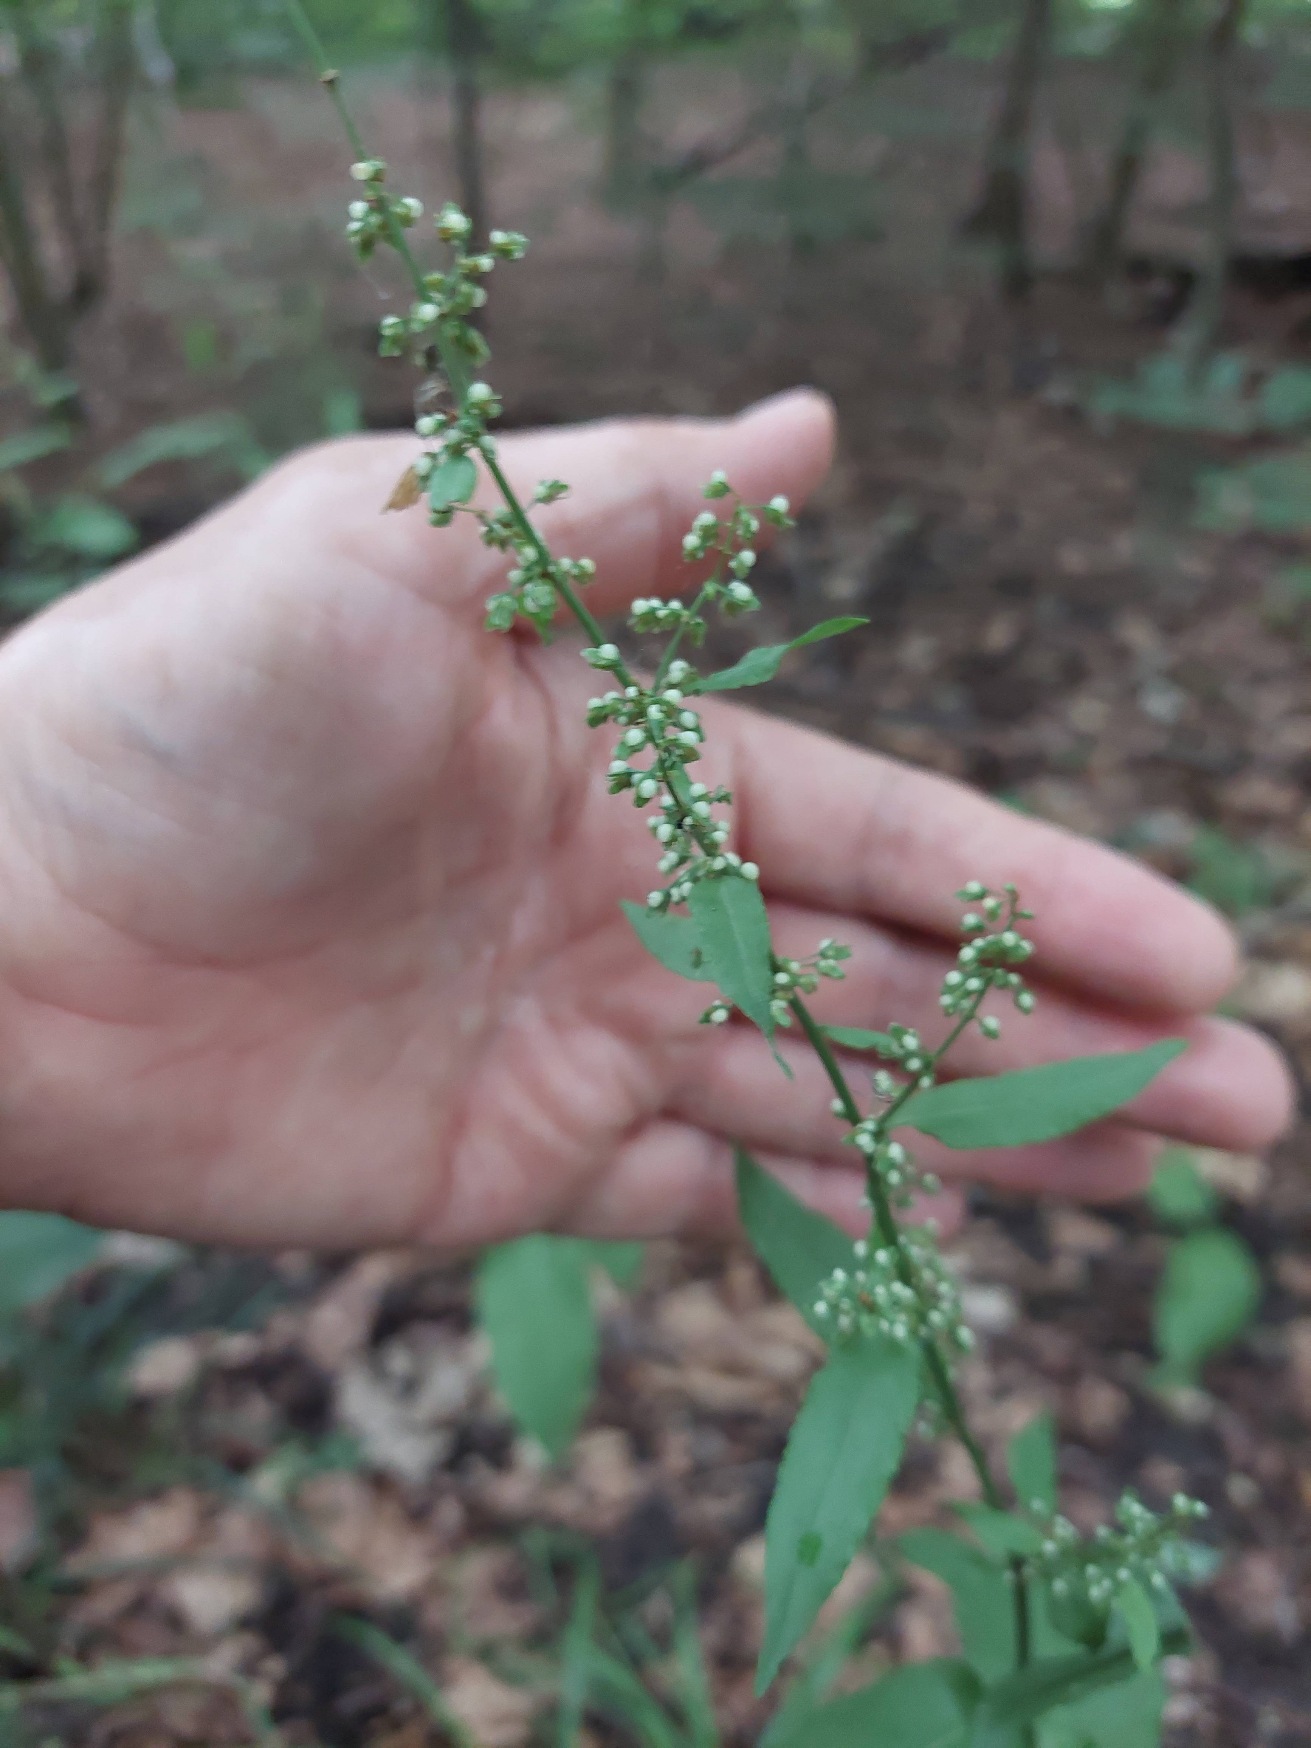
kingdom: Plantae
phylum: Tracheophyta
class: Magnoliopsida
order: Caryophyllales
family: Polygonaceae
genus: Rumex
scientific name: Rumex sanguineus
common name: Skov-skræppe
